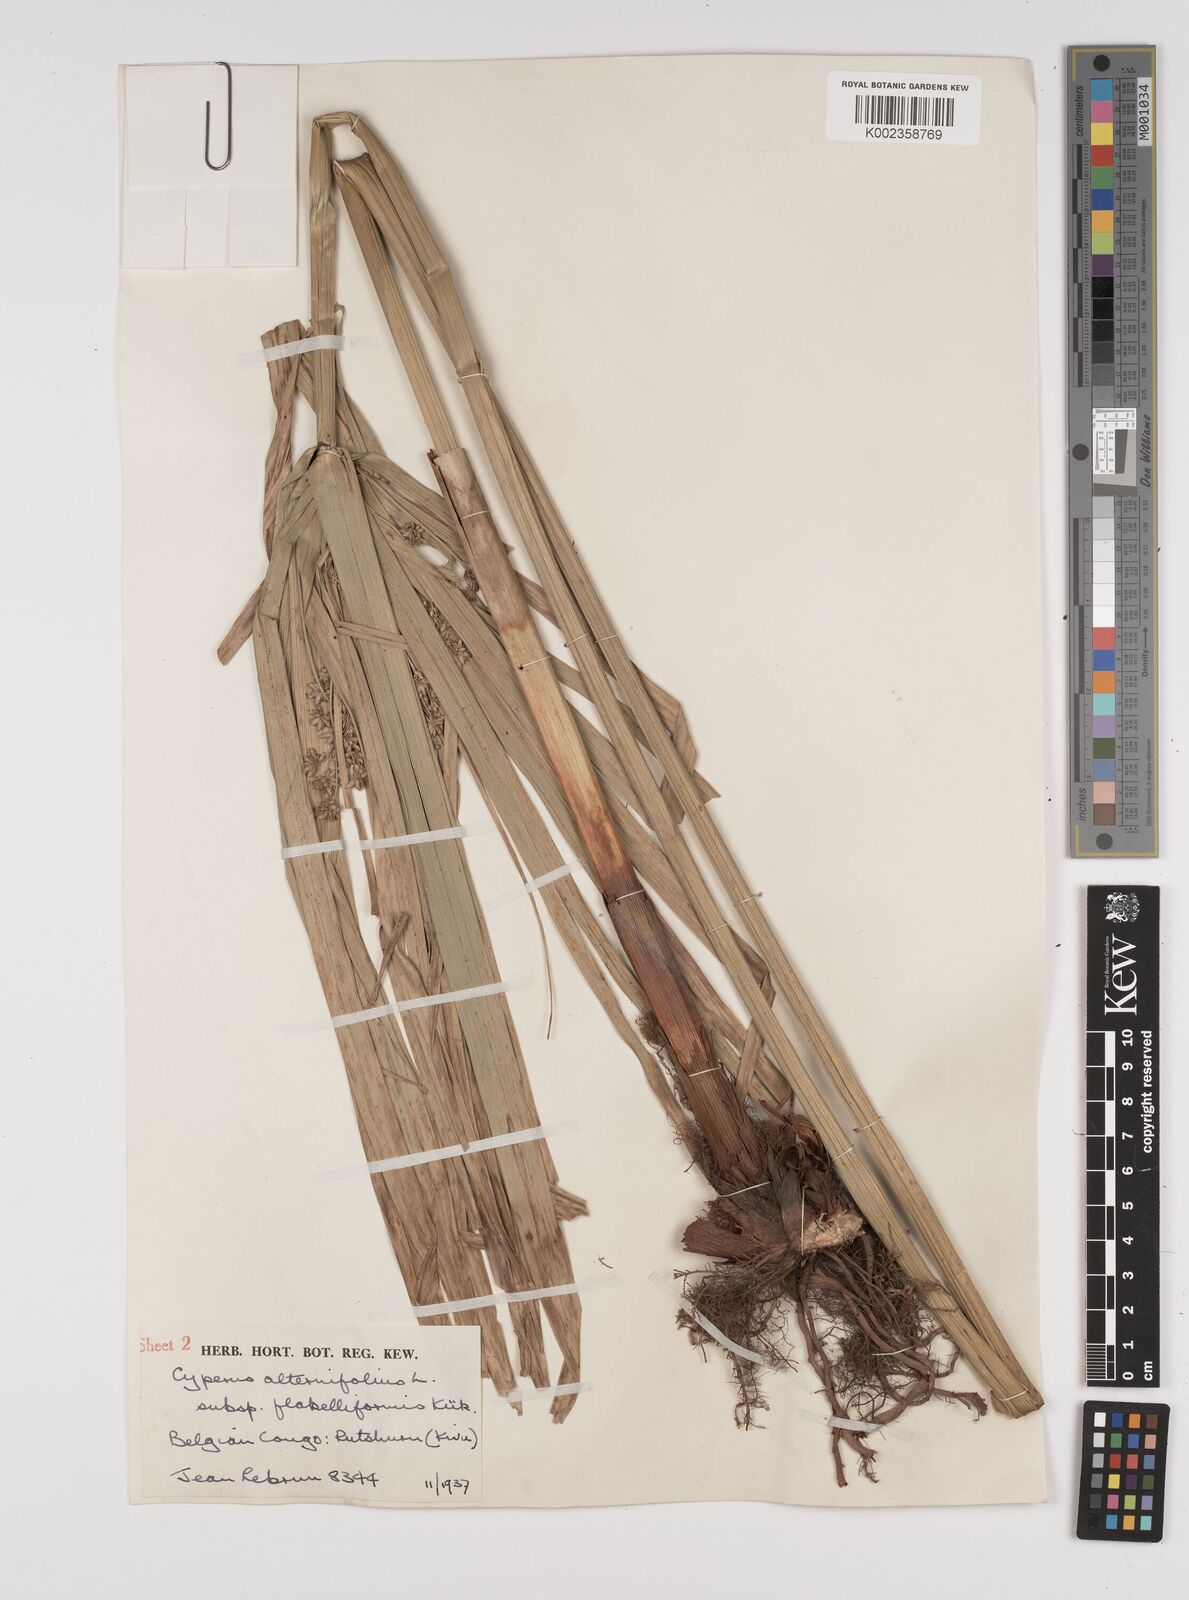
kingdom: Plantae
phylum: Tracheophyta
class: Liliopsida
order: Poales
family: Cyperaceae
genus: Cyperus
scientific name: Cyperus alternifolius
